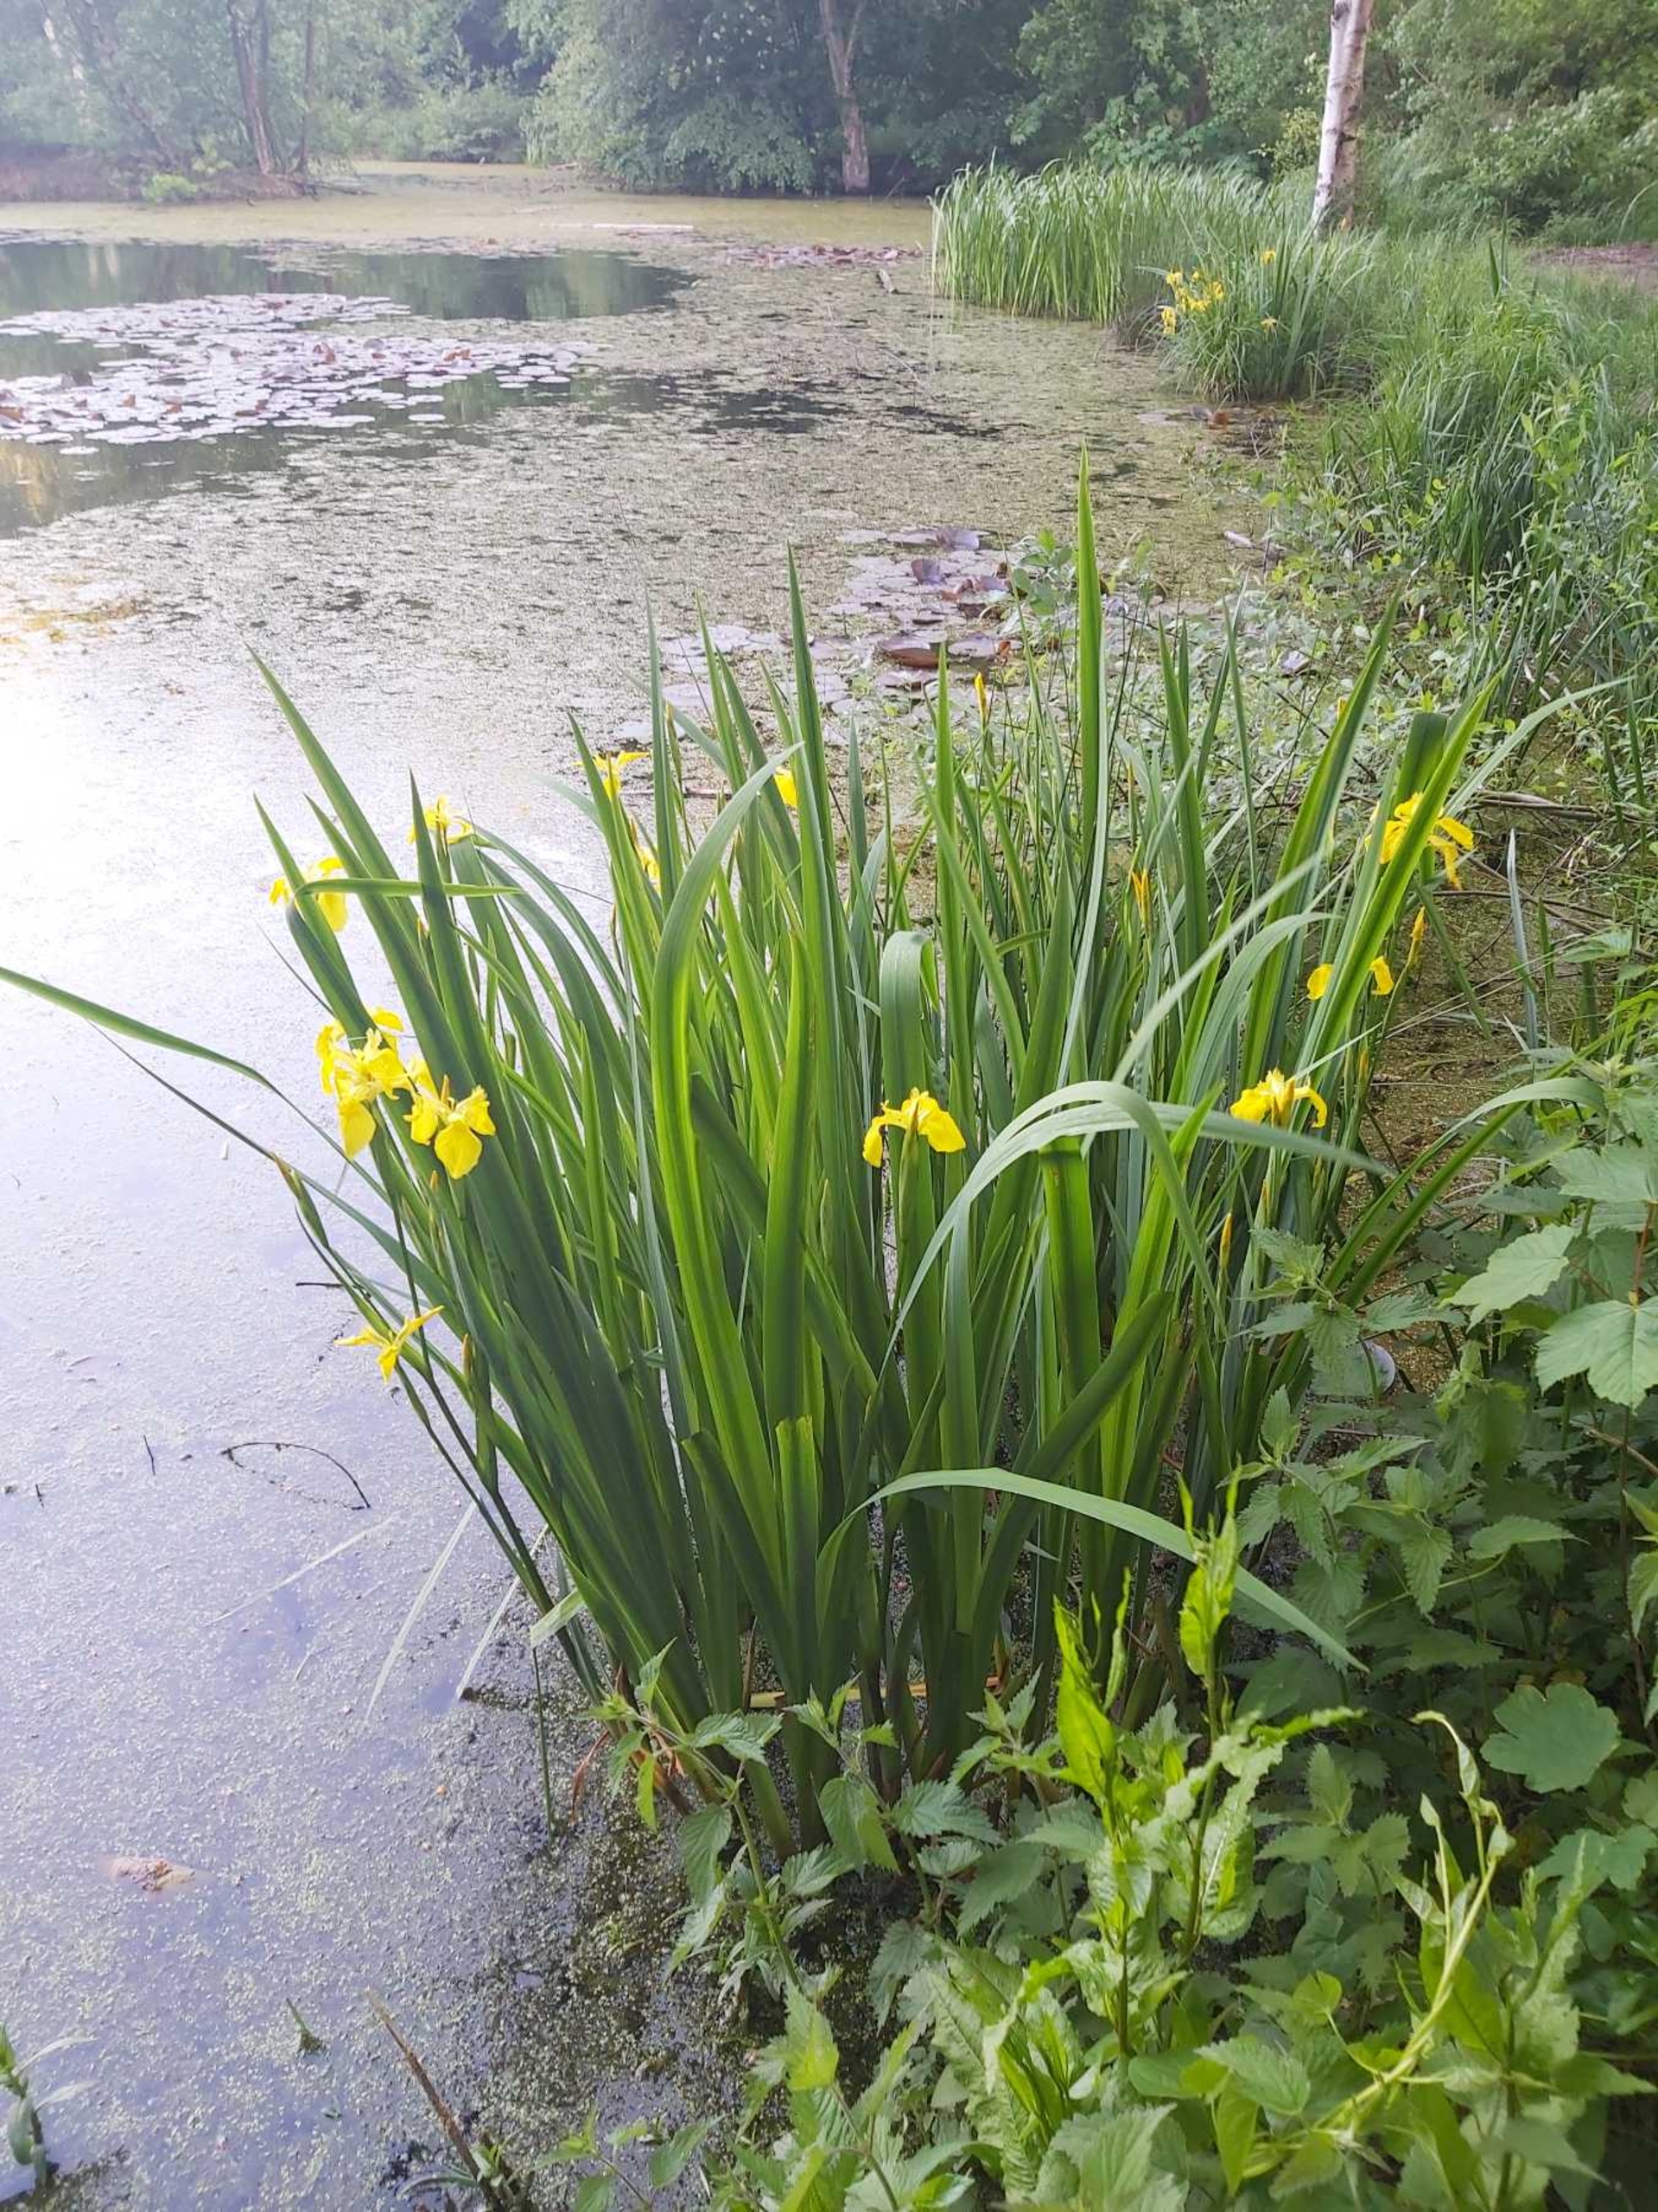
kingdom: Plantae
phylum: Tracheophyta
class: Liliopsida
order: Asparagales
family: Iridaceae
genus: Iris
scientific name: Iris pseudacorus
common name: Gul iris
